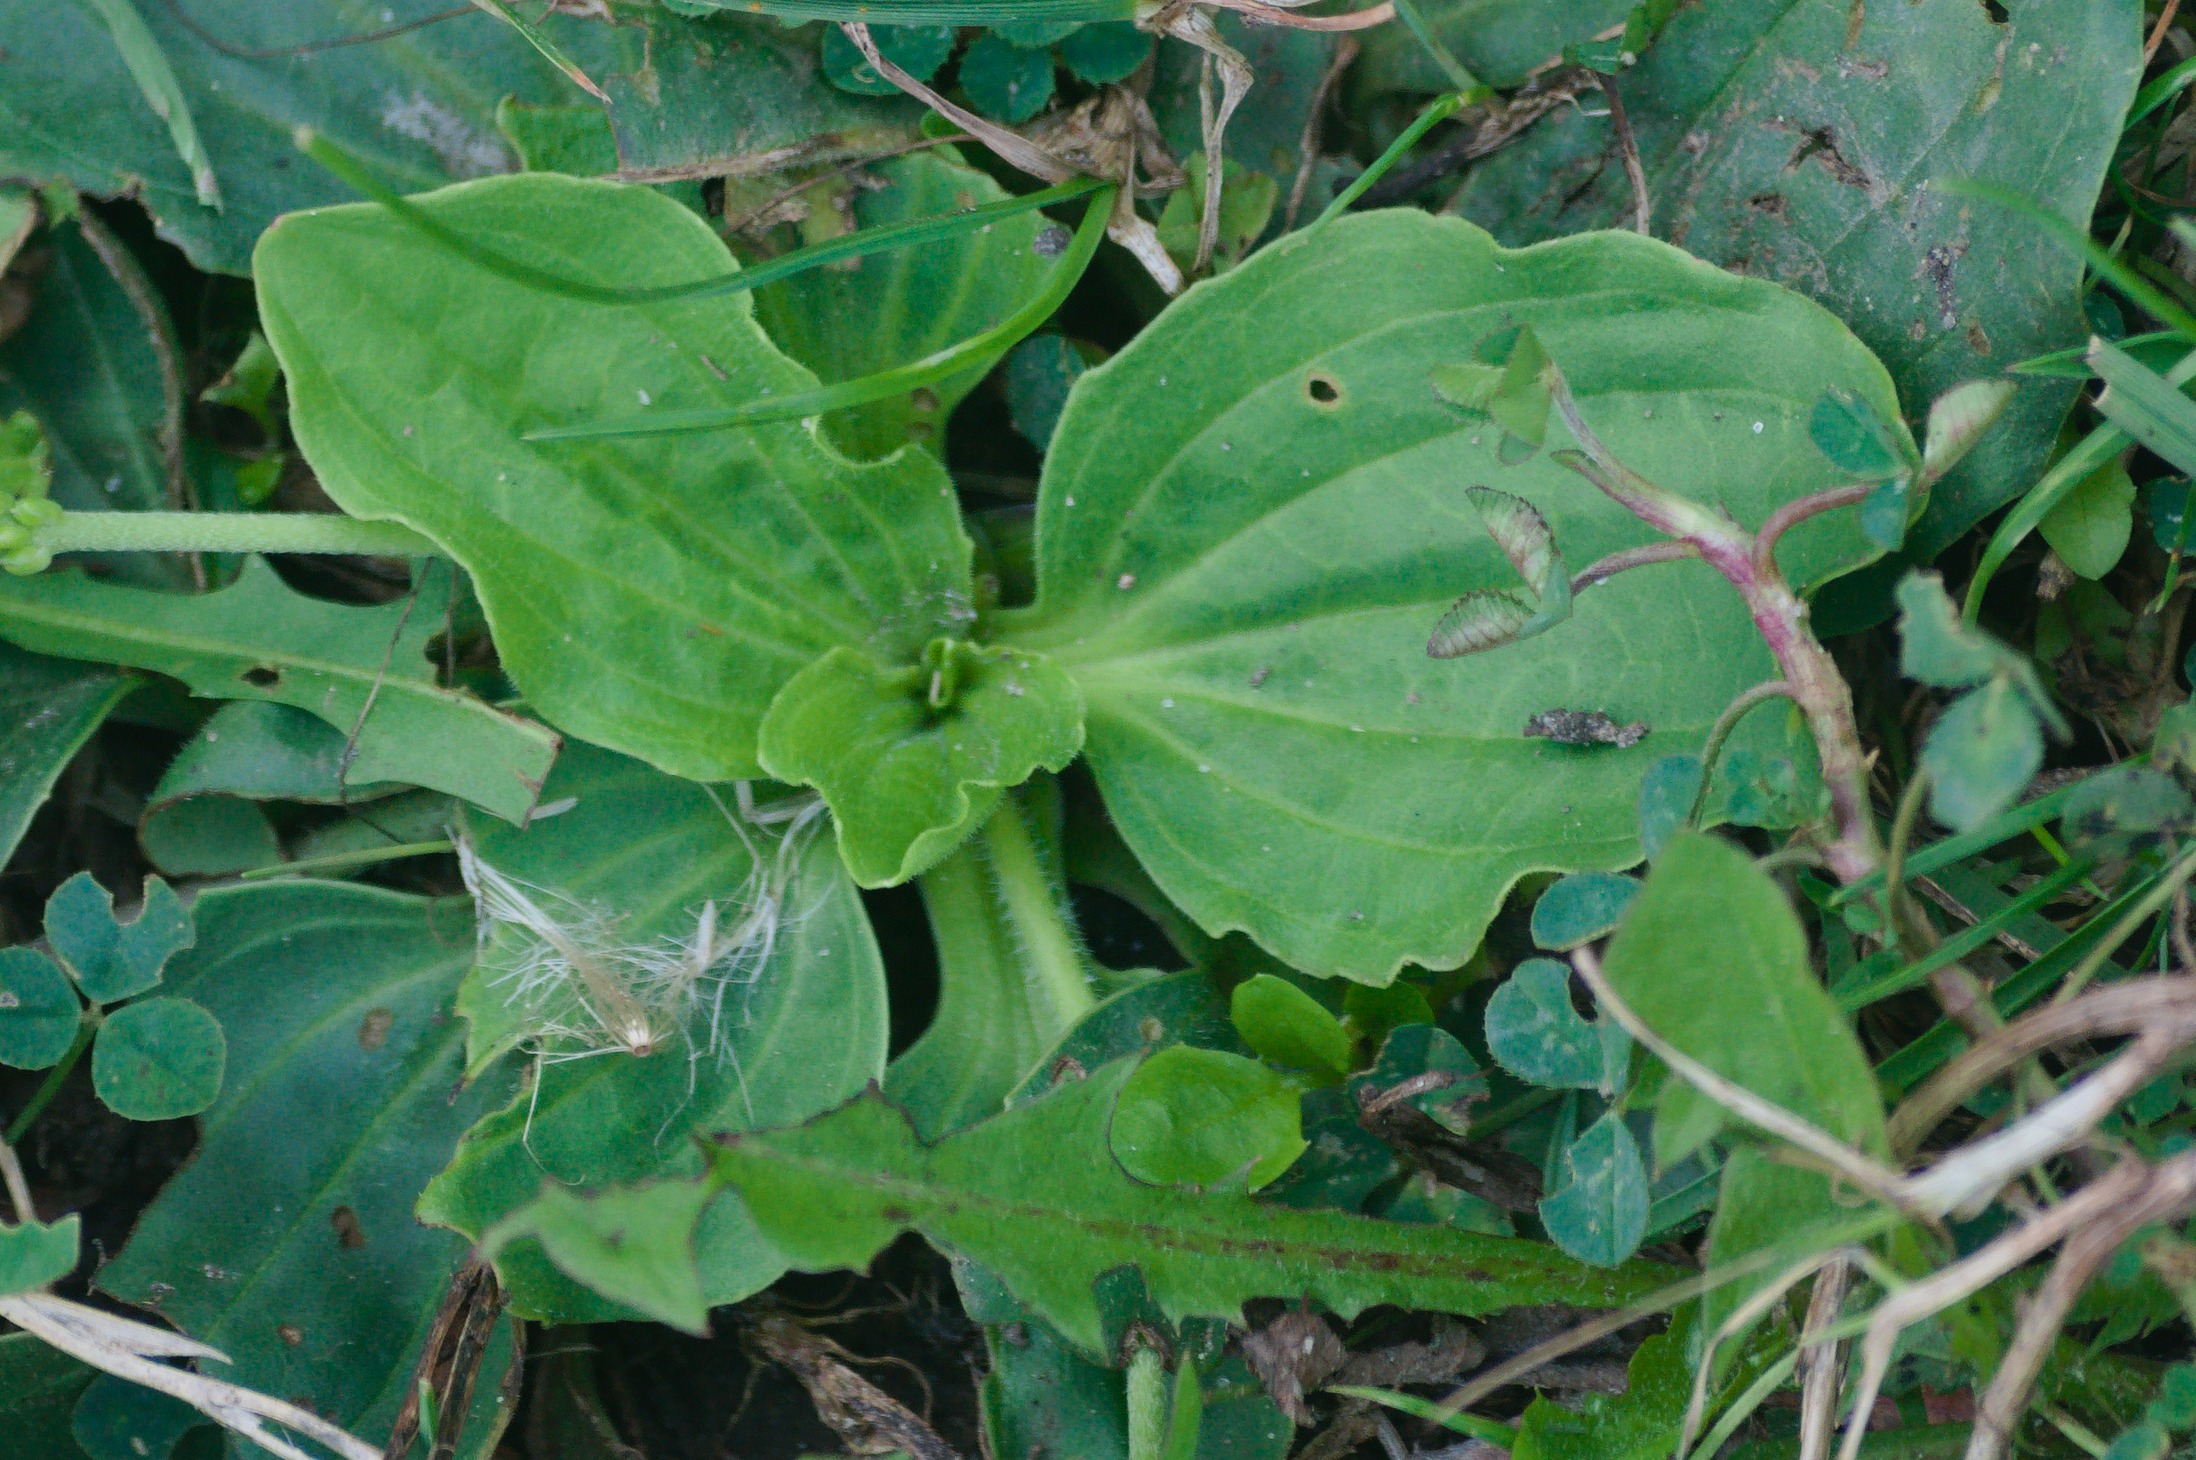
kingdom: Plantae
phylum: Tracheophyta
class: Magnoliopsida
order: Lamiales
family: Plantaginaceae
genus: Plantago
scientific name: Plantago uliginosa
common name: Ager-vejbred
